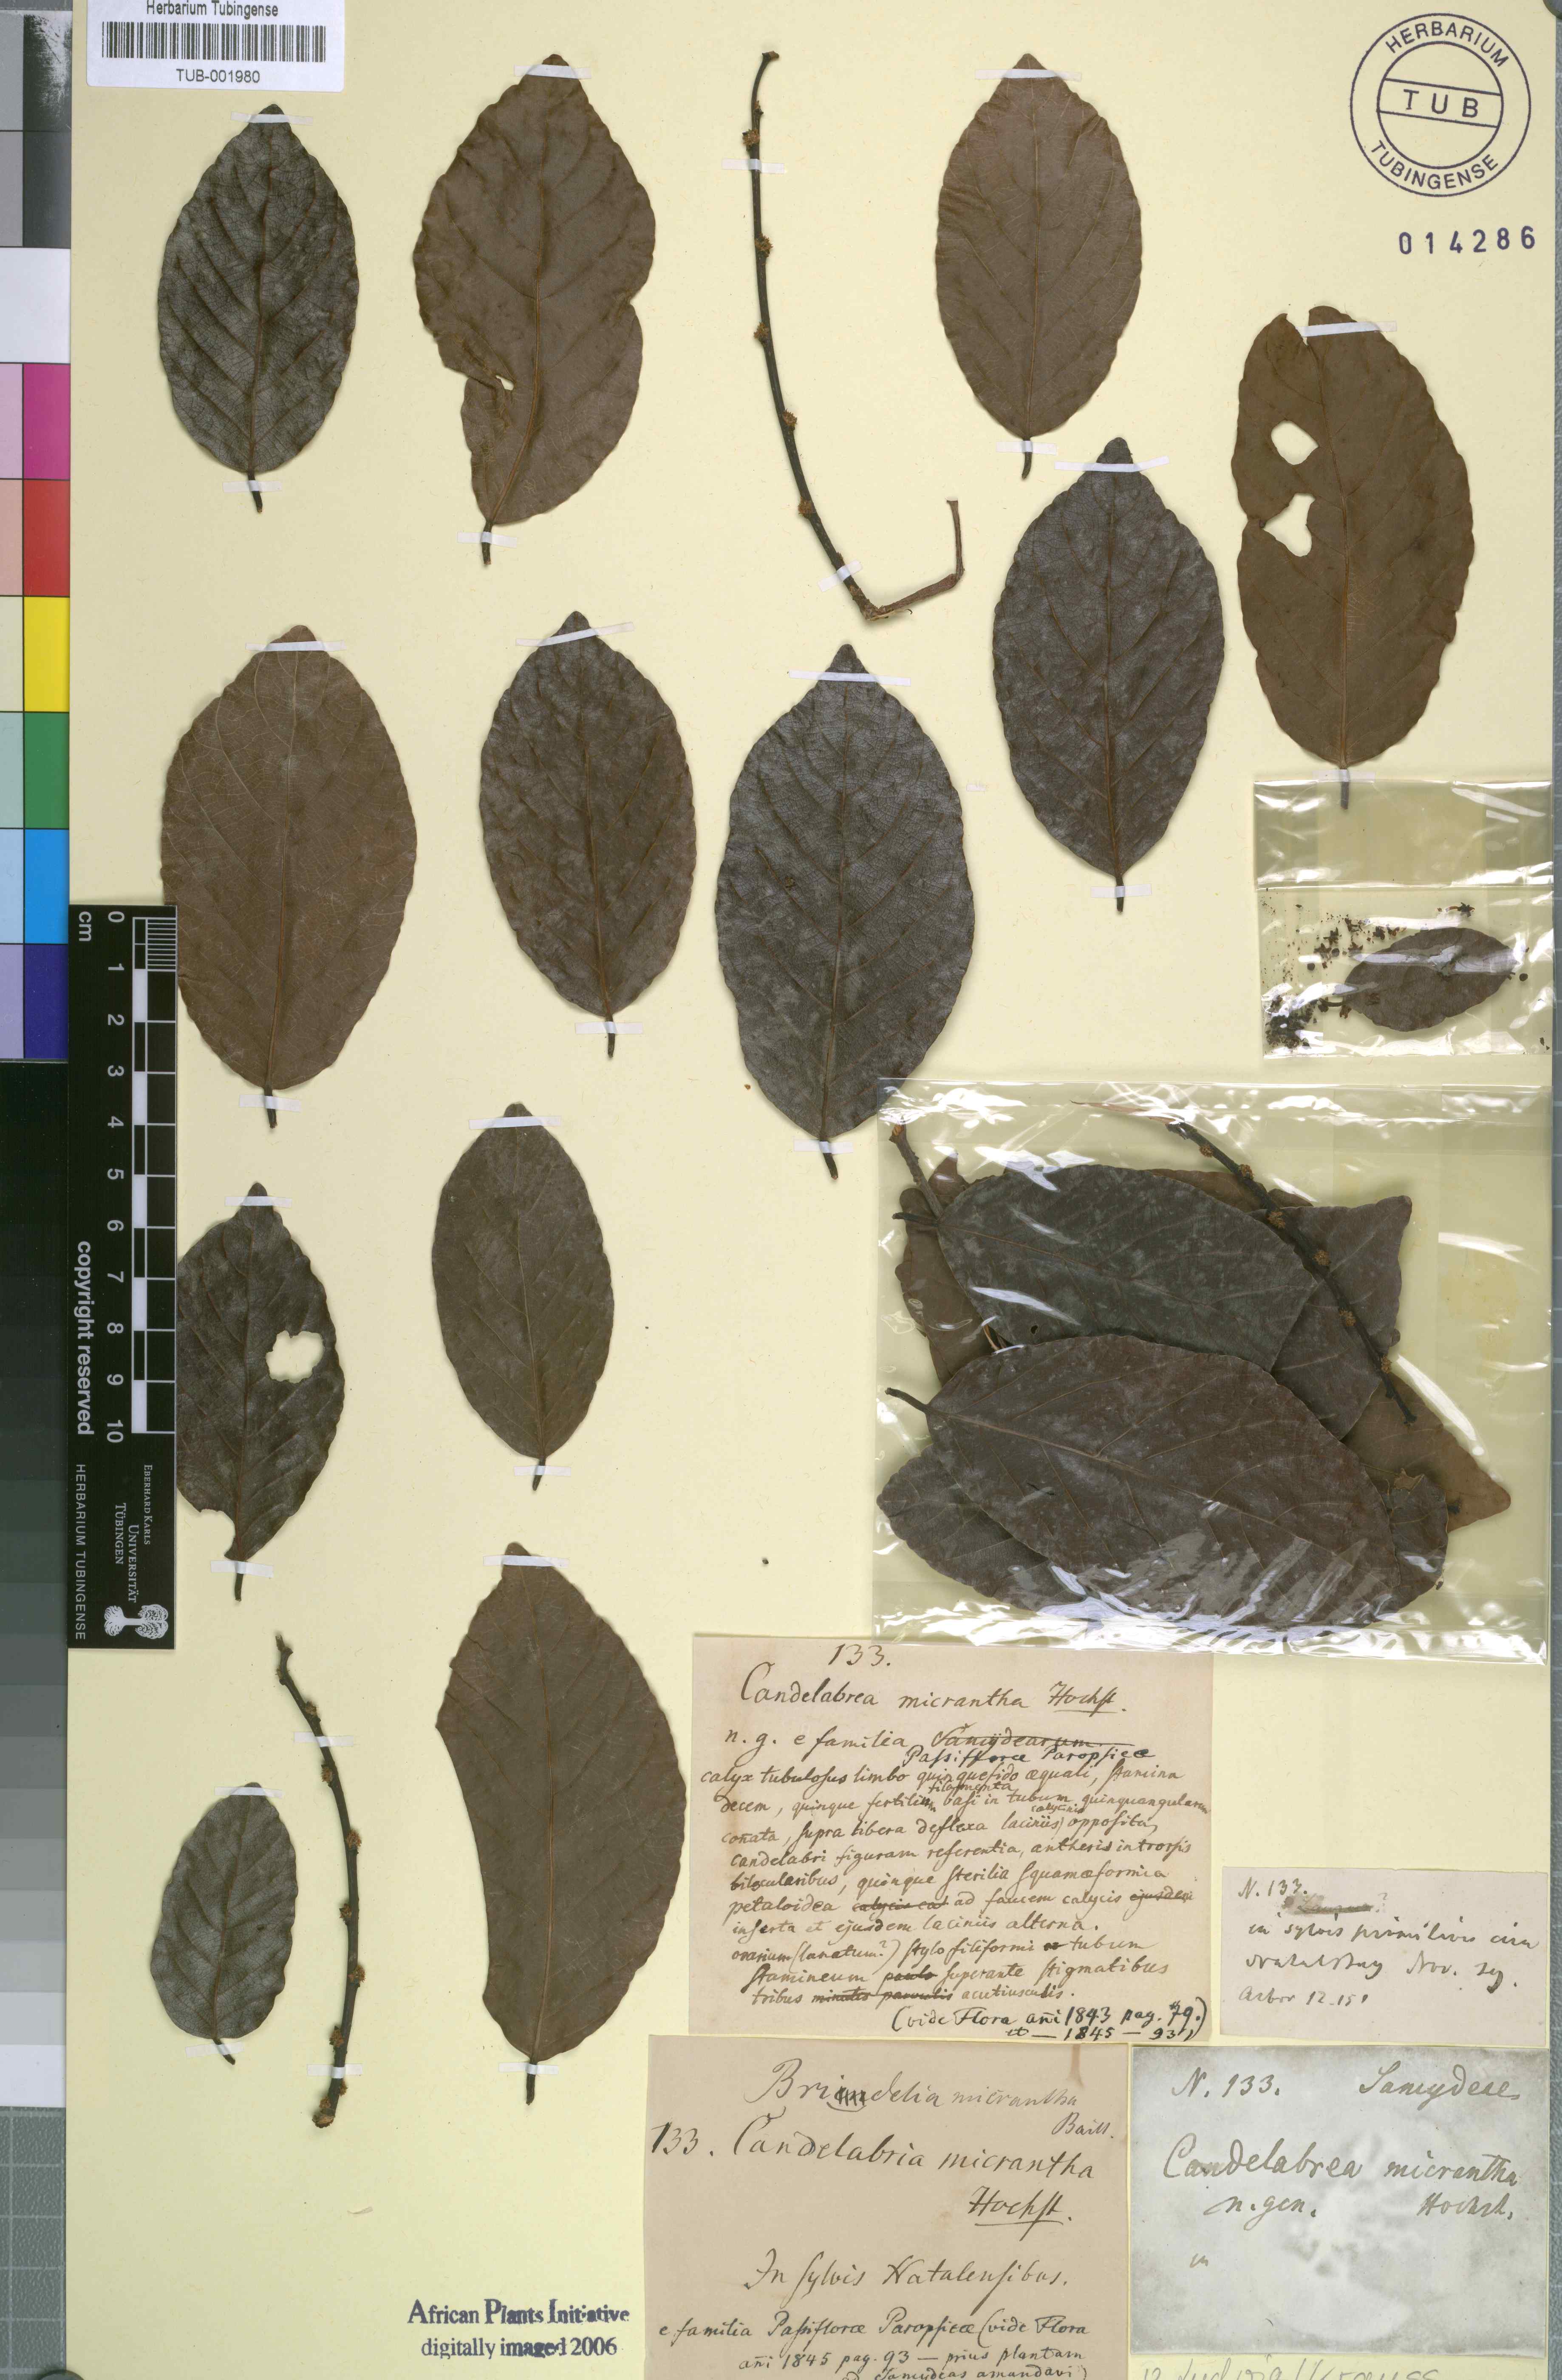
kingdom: Plantae
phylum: Tracheophyta
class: Magnoliopsida
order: Malpighiales
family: Phyllanthaceae
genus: Bridelia
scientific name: Bridelia micrantha
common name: Bridelia
